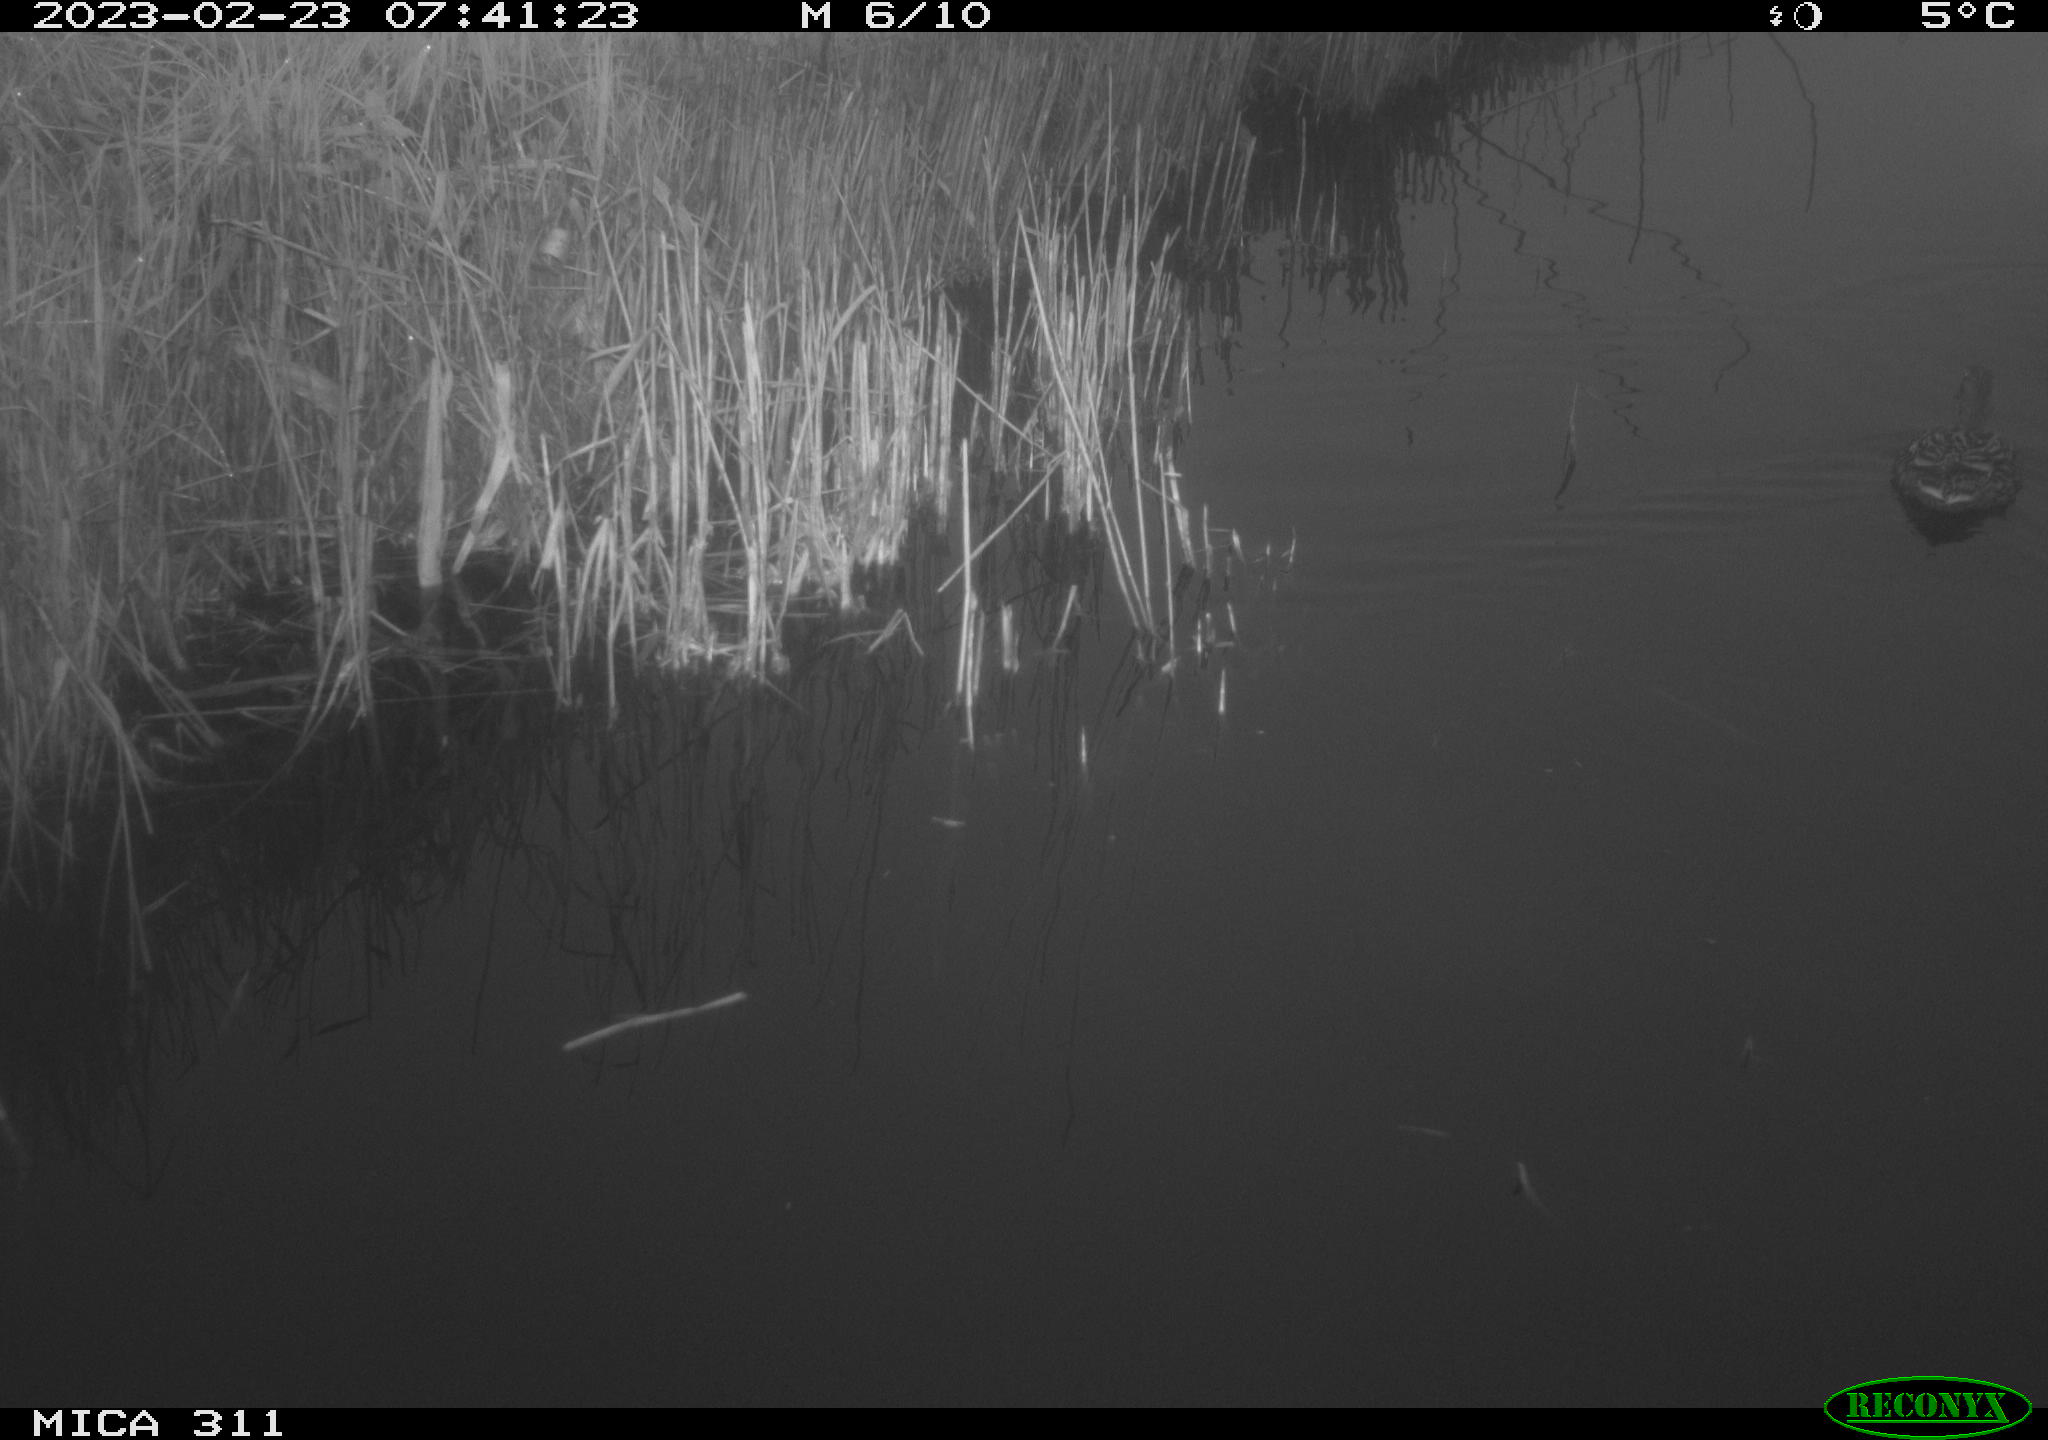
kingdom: Animalia
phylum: Chordata
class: Aves
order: Anseriformes
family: Anatidae
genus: Anas
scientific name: Anas
